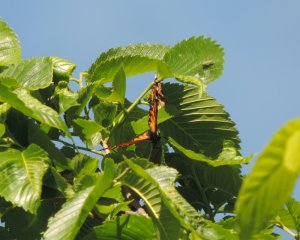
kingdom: Animalia
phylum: Arthropoda
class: Insecta
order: Lepidoptera
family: Nymphalidae
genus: Limenitis
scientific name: Limenitis archippus
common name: Viceroy
